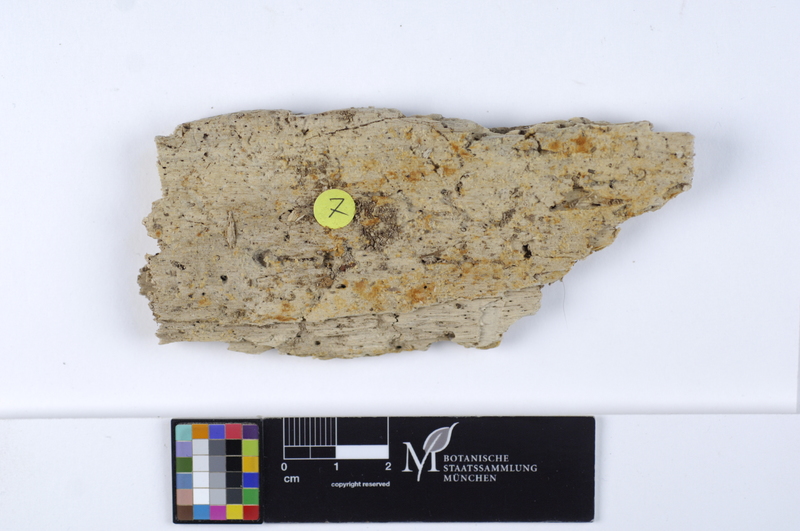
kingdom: Fungi
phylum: Basidiomycota
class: Agaricomycetes
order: Thelephorales
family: Bankeraceae
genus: Boletopsis
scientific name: Boletopsis leucomelaena
